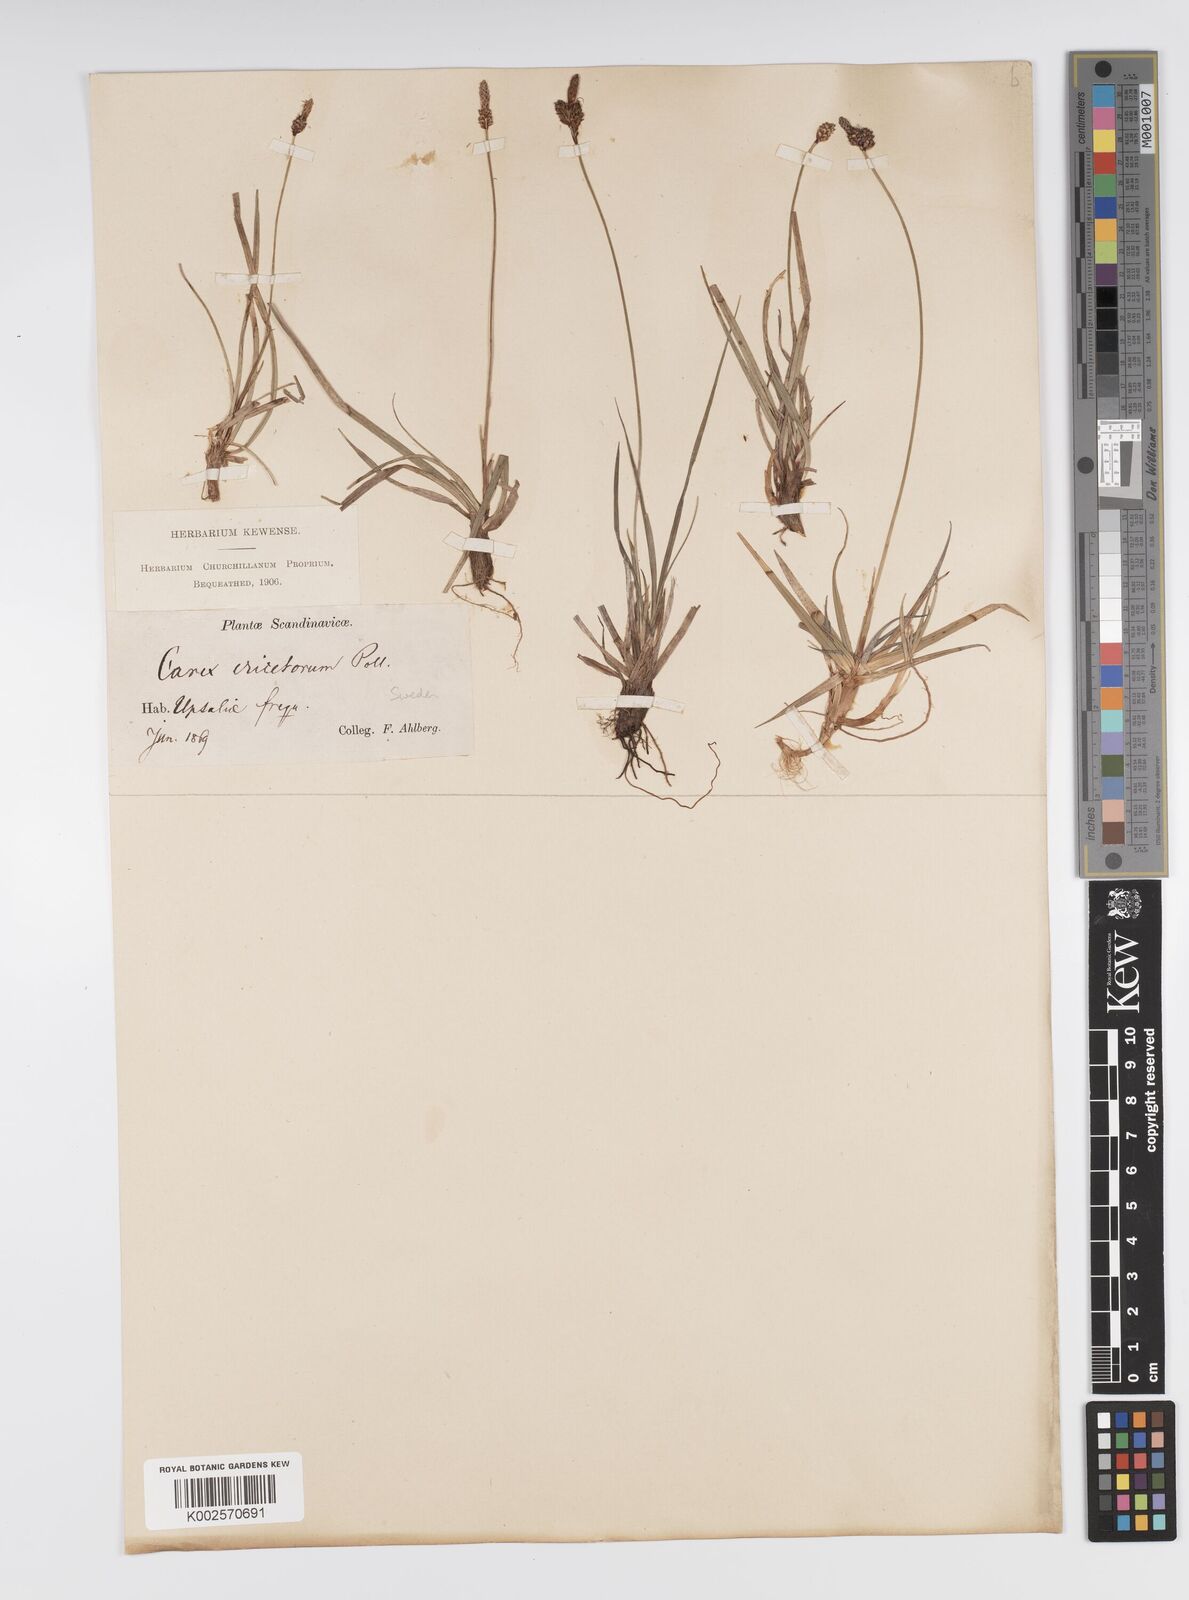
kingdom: Plantae
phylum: Tracheophyta
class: Liliopsida
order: Poales
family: Cyperaceae
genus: Carex
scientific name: Carex ericetorum
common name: Rare spring-sedge
